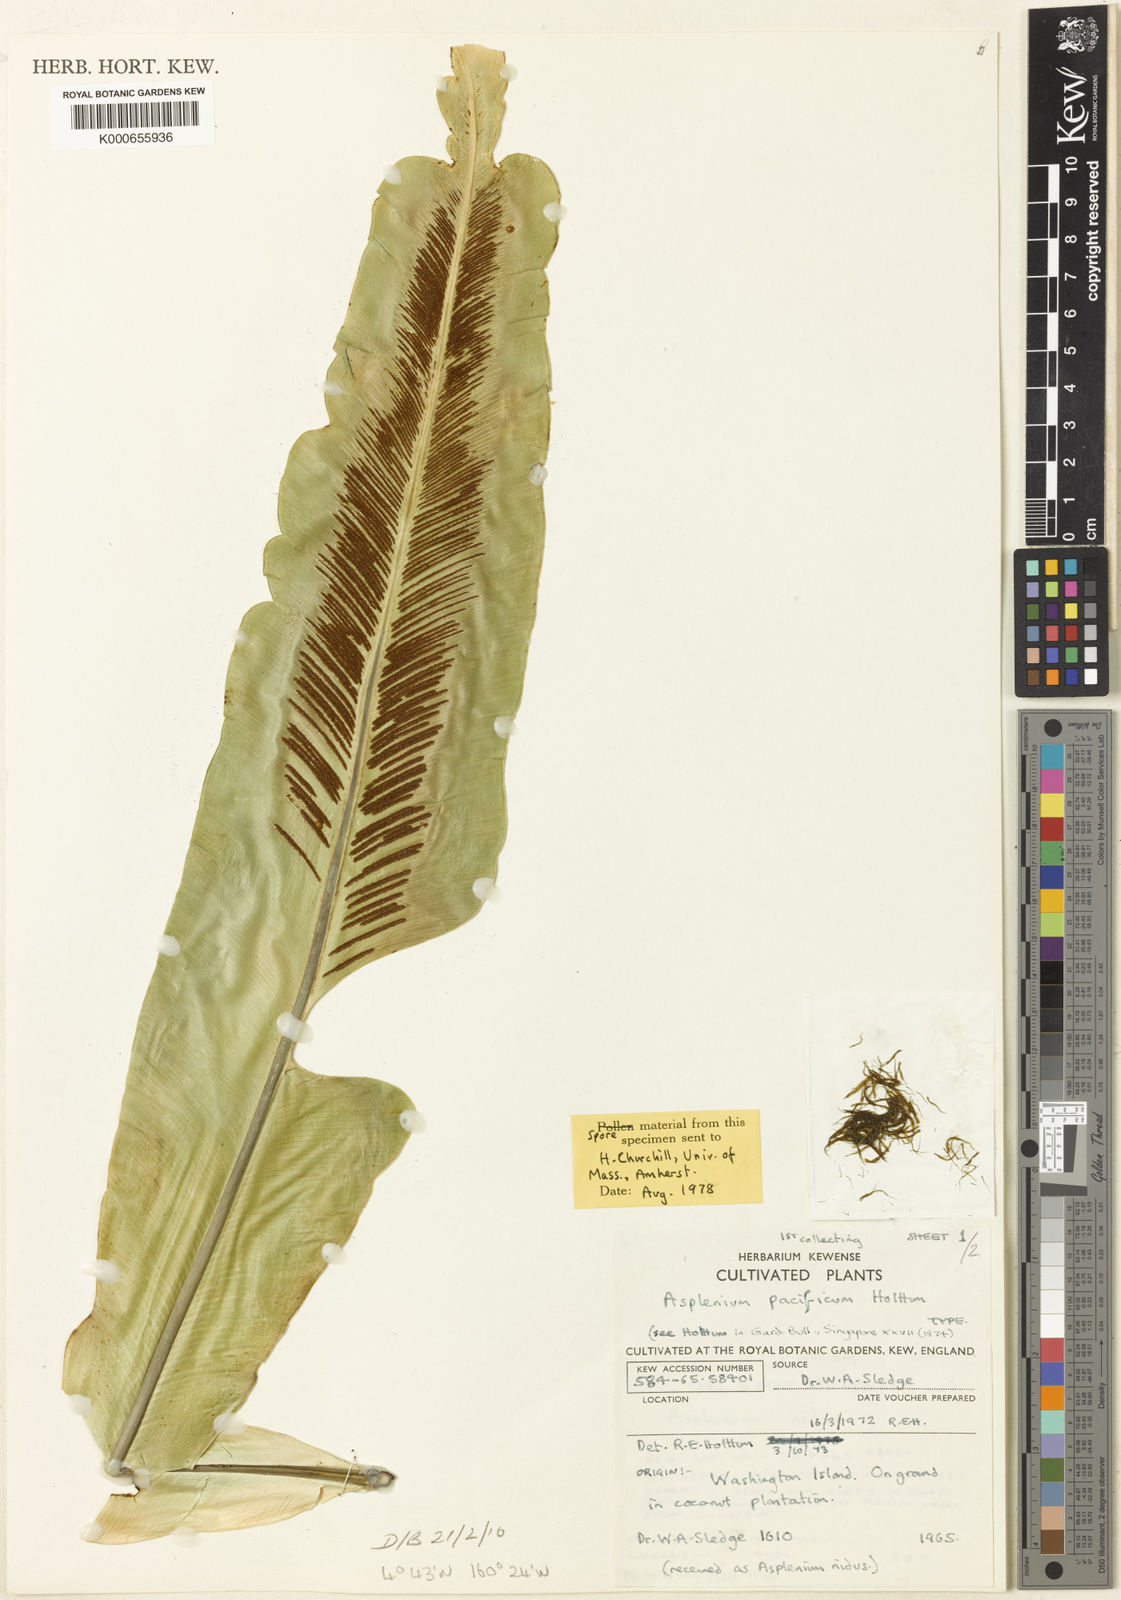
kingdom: Plantae
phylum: Tracheophyta
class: Polypodiopsida
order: Polypodiales
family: Aspleniaceae
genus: Asplenium
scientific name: Asplenium pacificum
